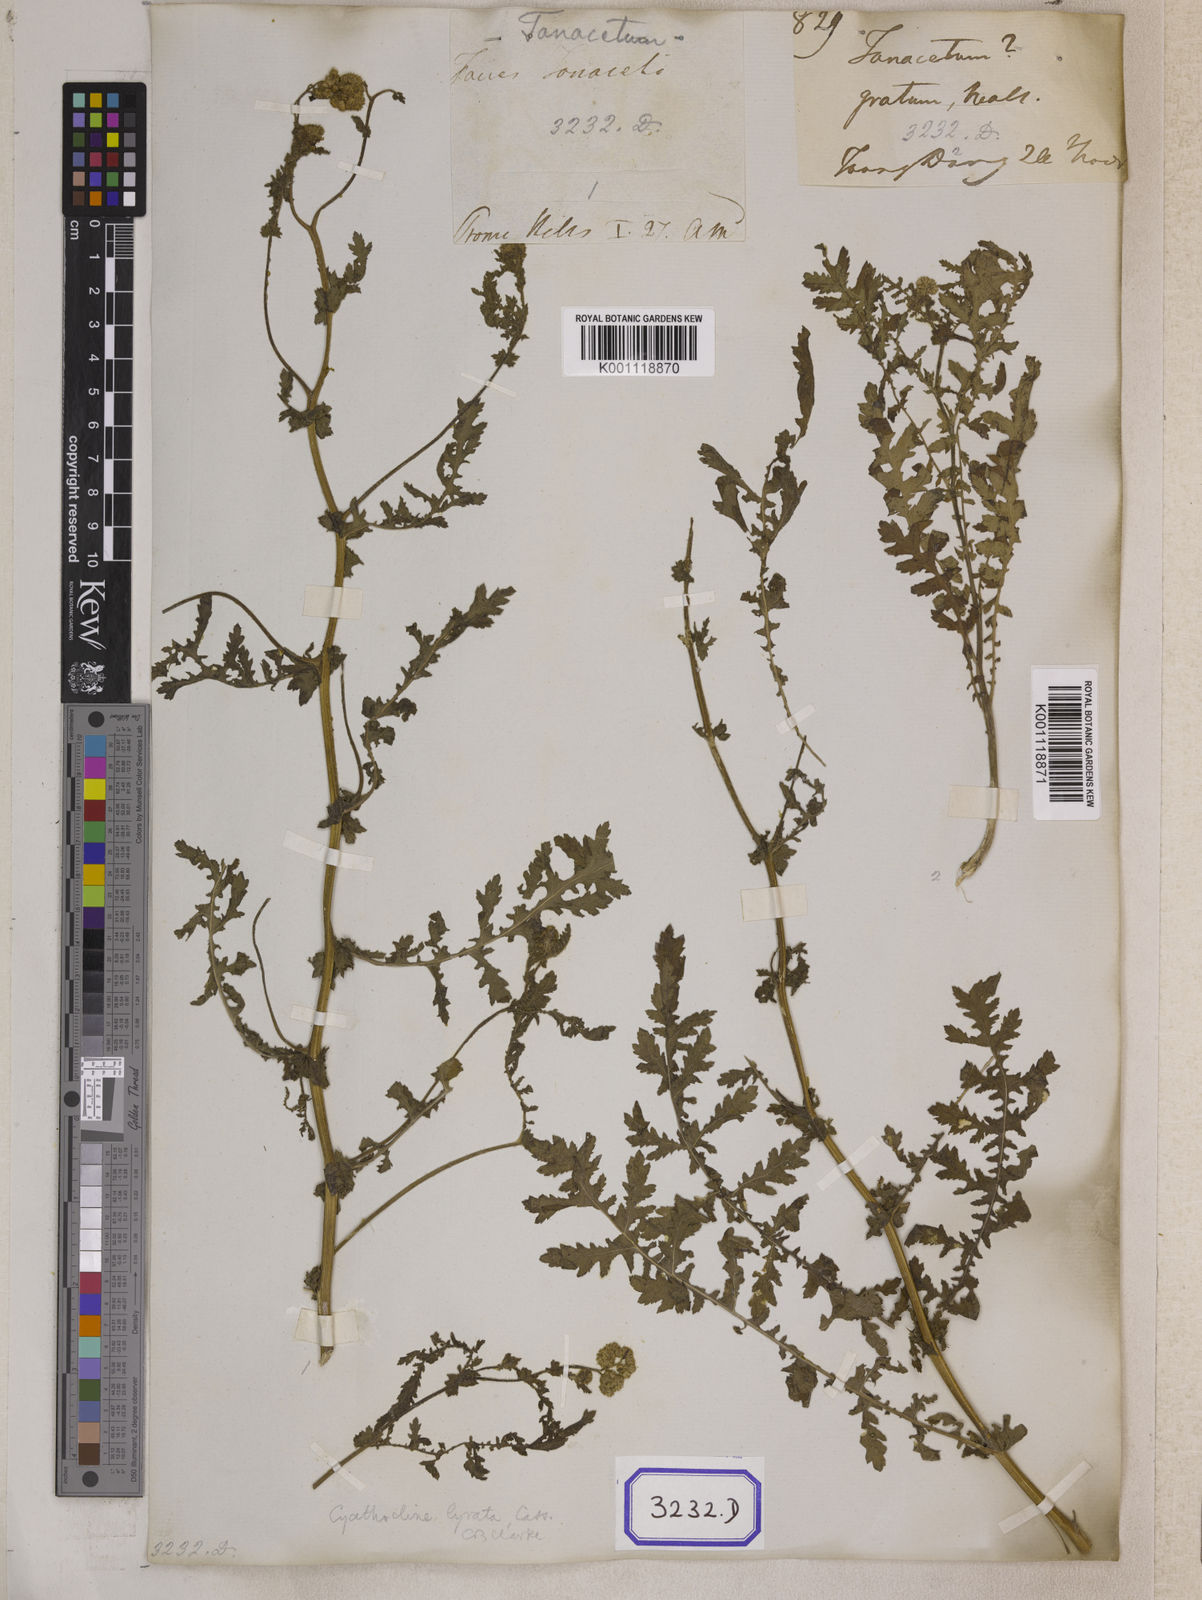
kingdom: Plantae
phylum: Tracheophyta
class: Magnoliopsida
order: Asterales
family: Asteraceae
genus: Cyathocline
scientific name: Cyathocline purpurea
